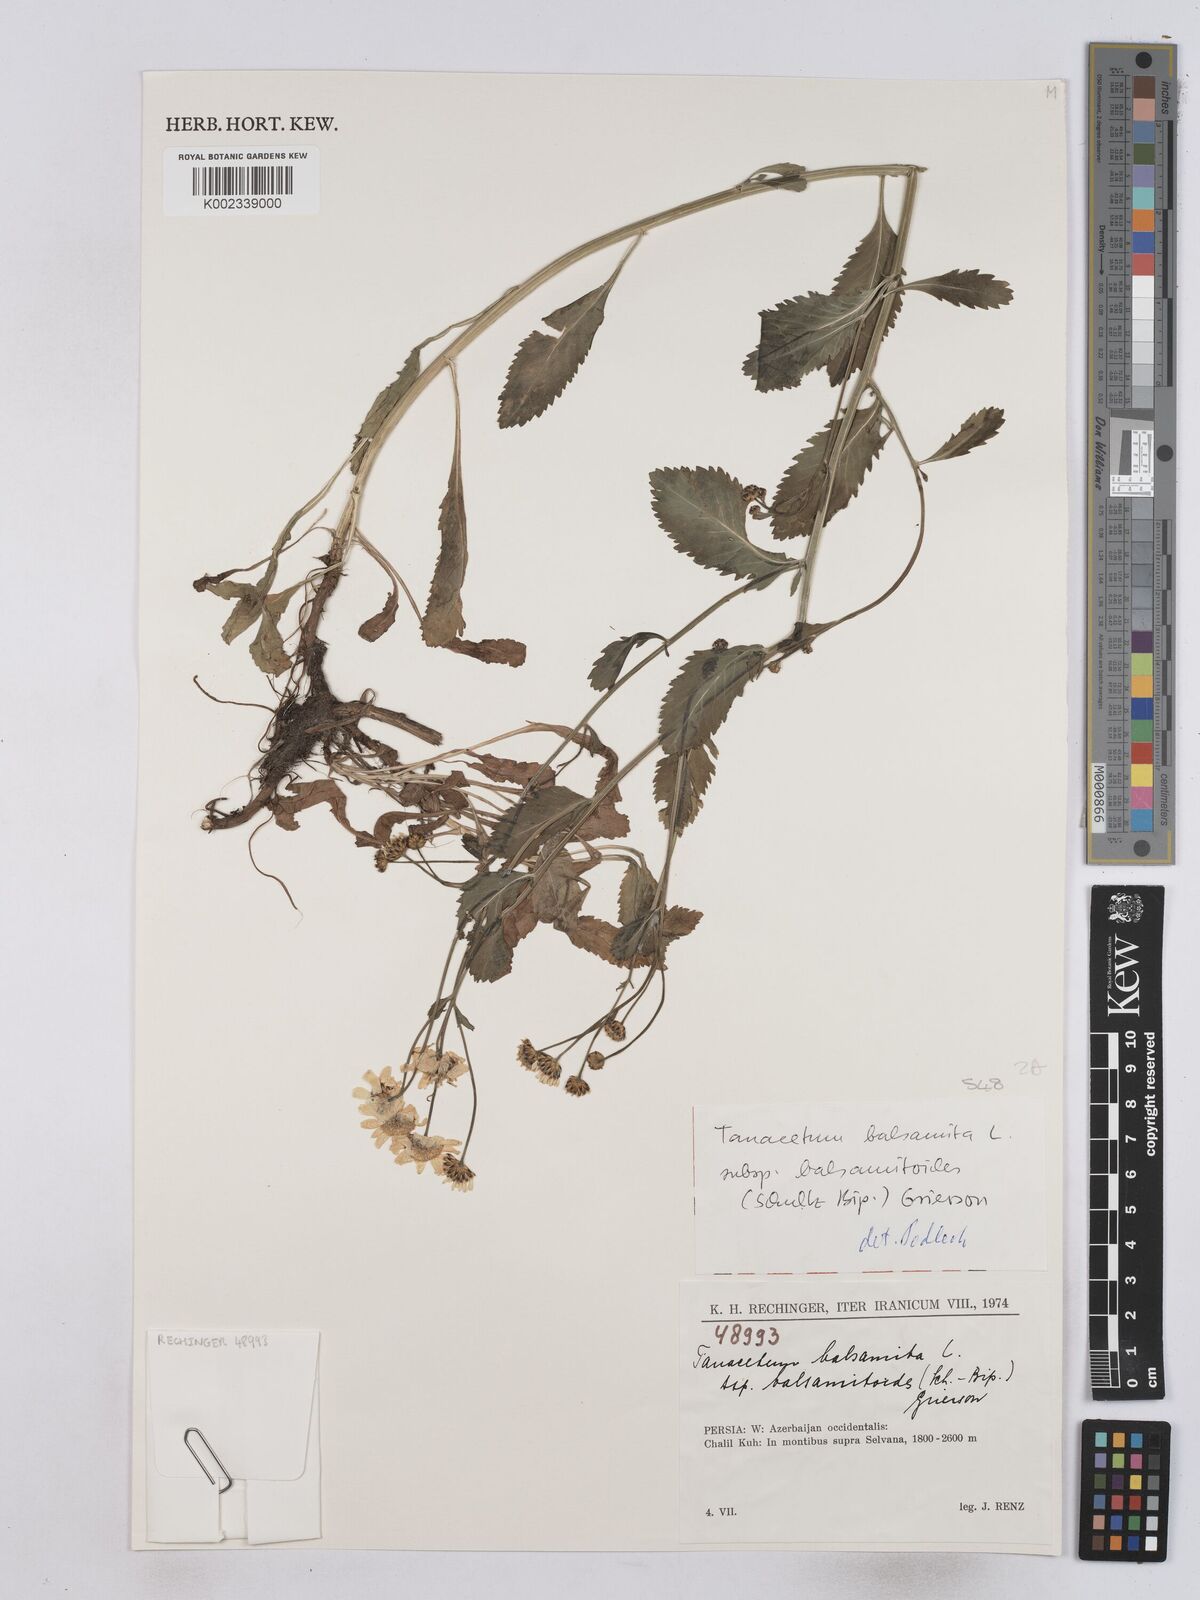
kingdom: Plantae
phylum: Tracheophyta
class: Magnoliopsida
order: Asterales
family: Asteraceae
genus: Tanacetum
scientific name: Tanacetum balsamita
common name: Costmary
